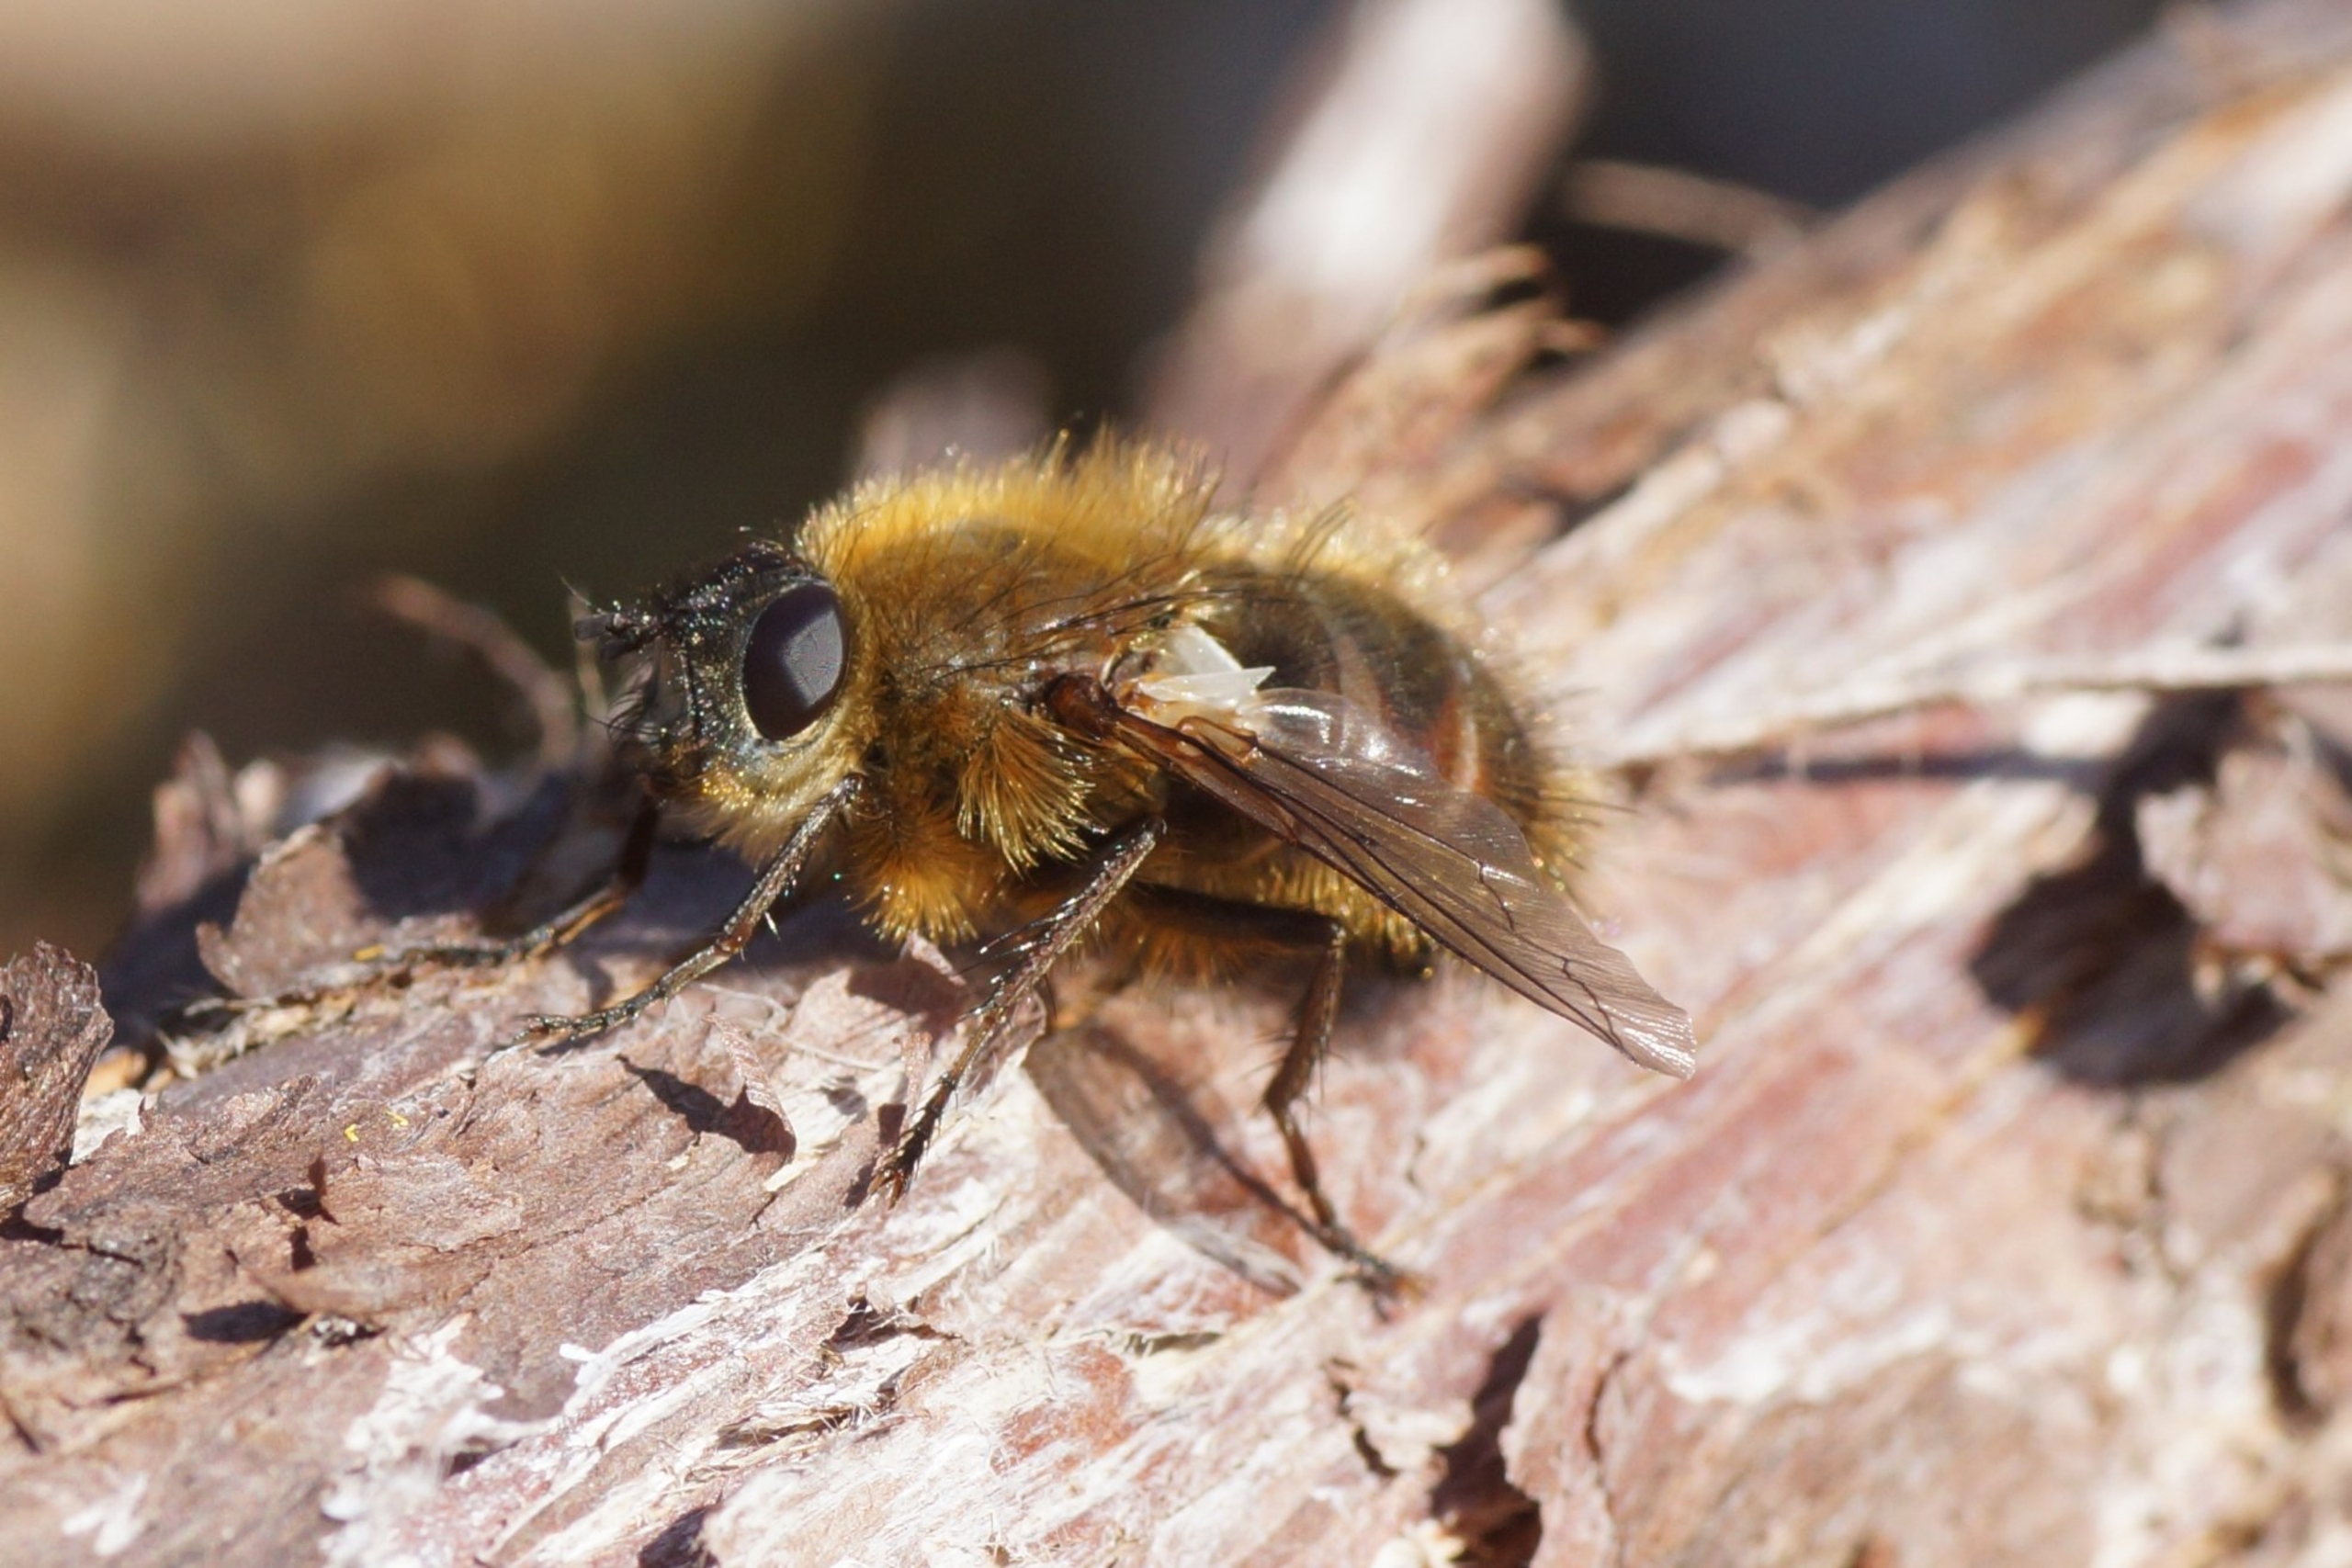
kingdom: Animalia
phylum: Arthropoda
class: Insecta
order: Diptera
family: Tachinidae
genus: Tachina
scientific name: Tachina ursina
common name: Bjørnesnylteflue
